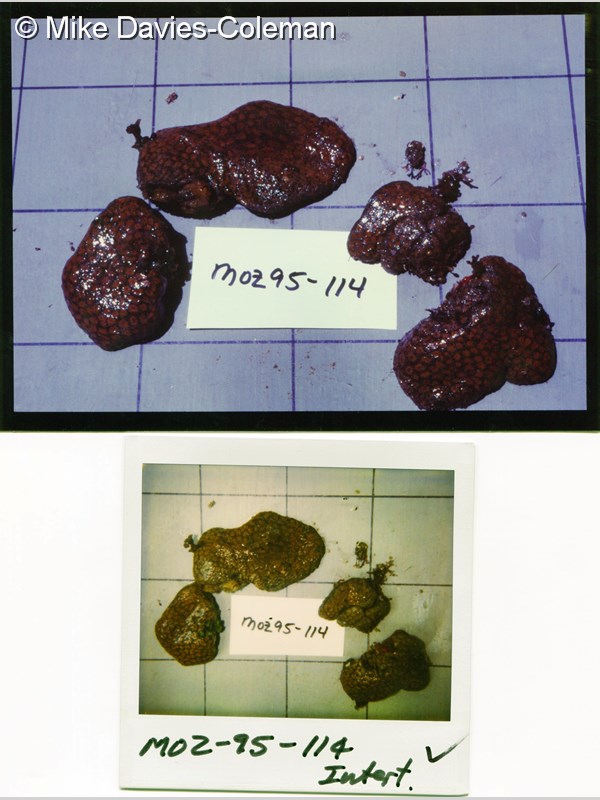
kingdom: Animalia
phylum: Chordata
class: Ascidiacea
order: Aplousobranchia
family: Polyclinidae
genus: Aplidium
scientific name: Aplidium flavolineatum
